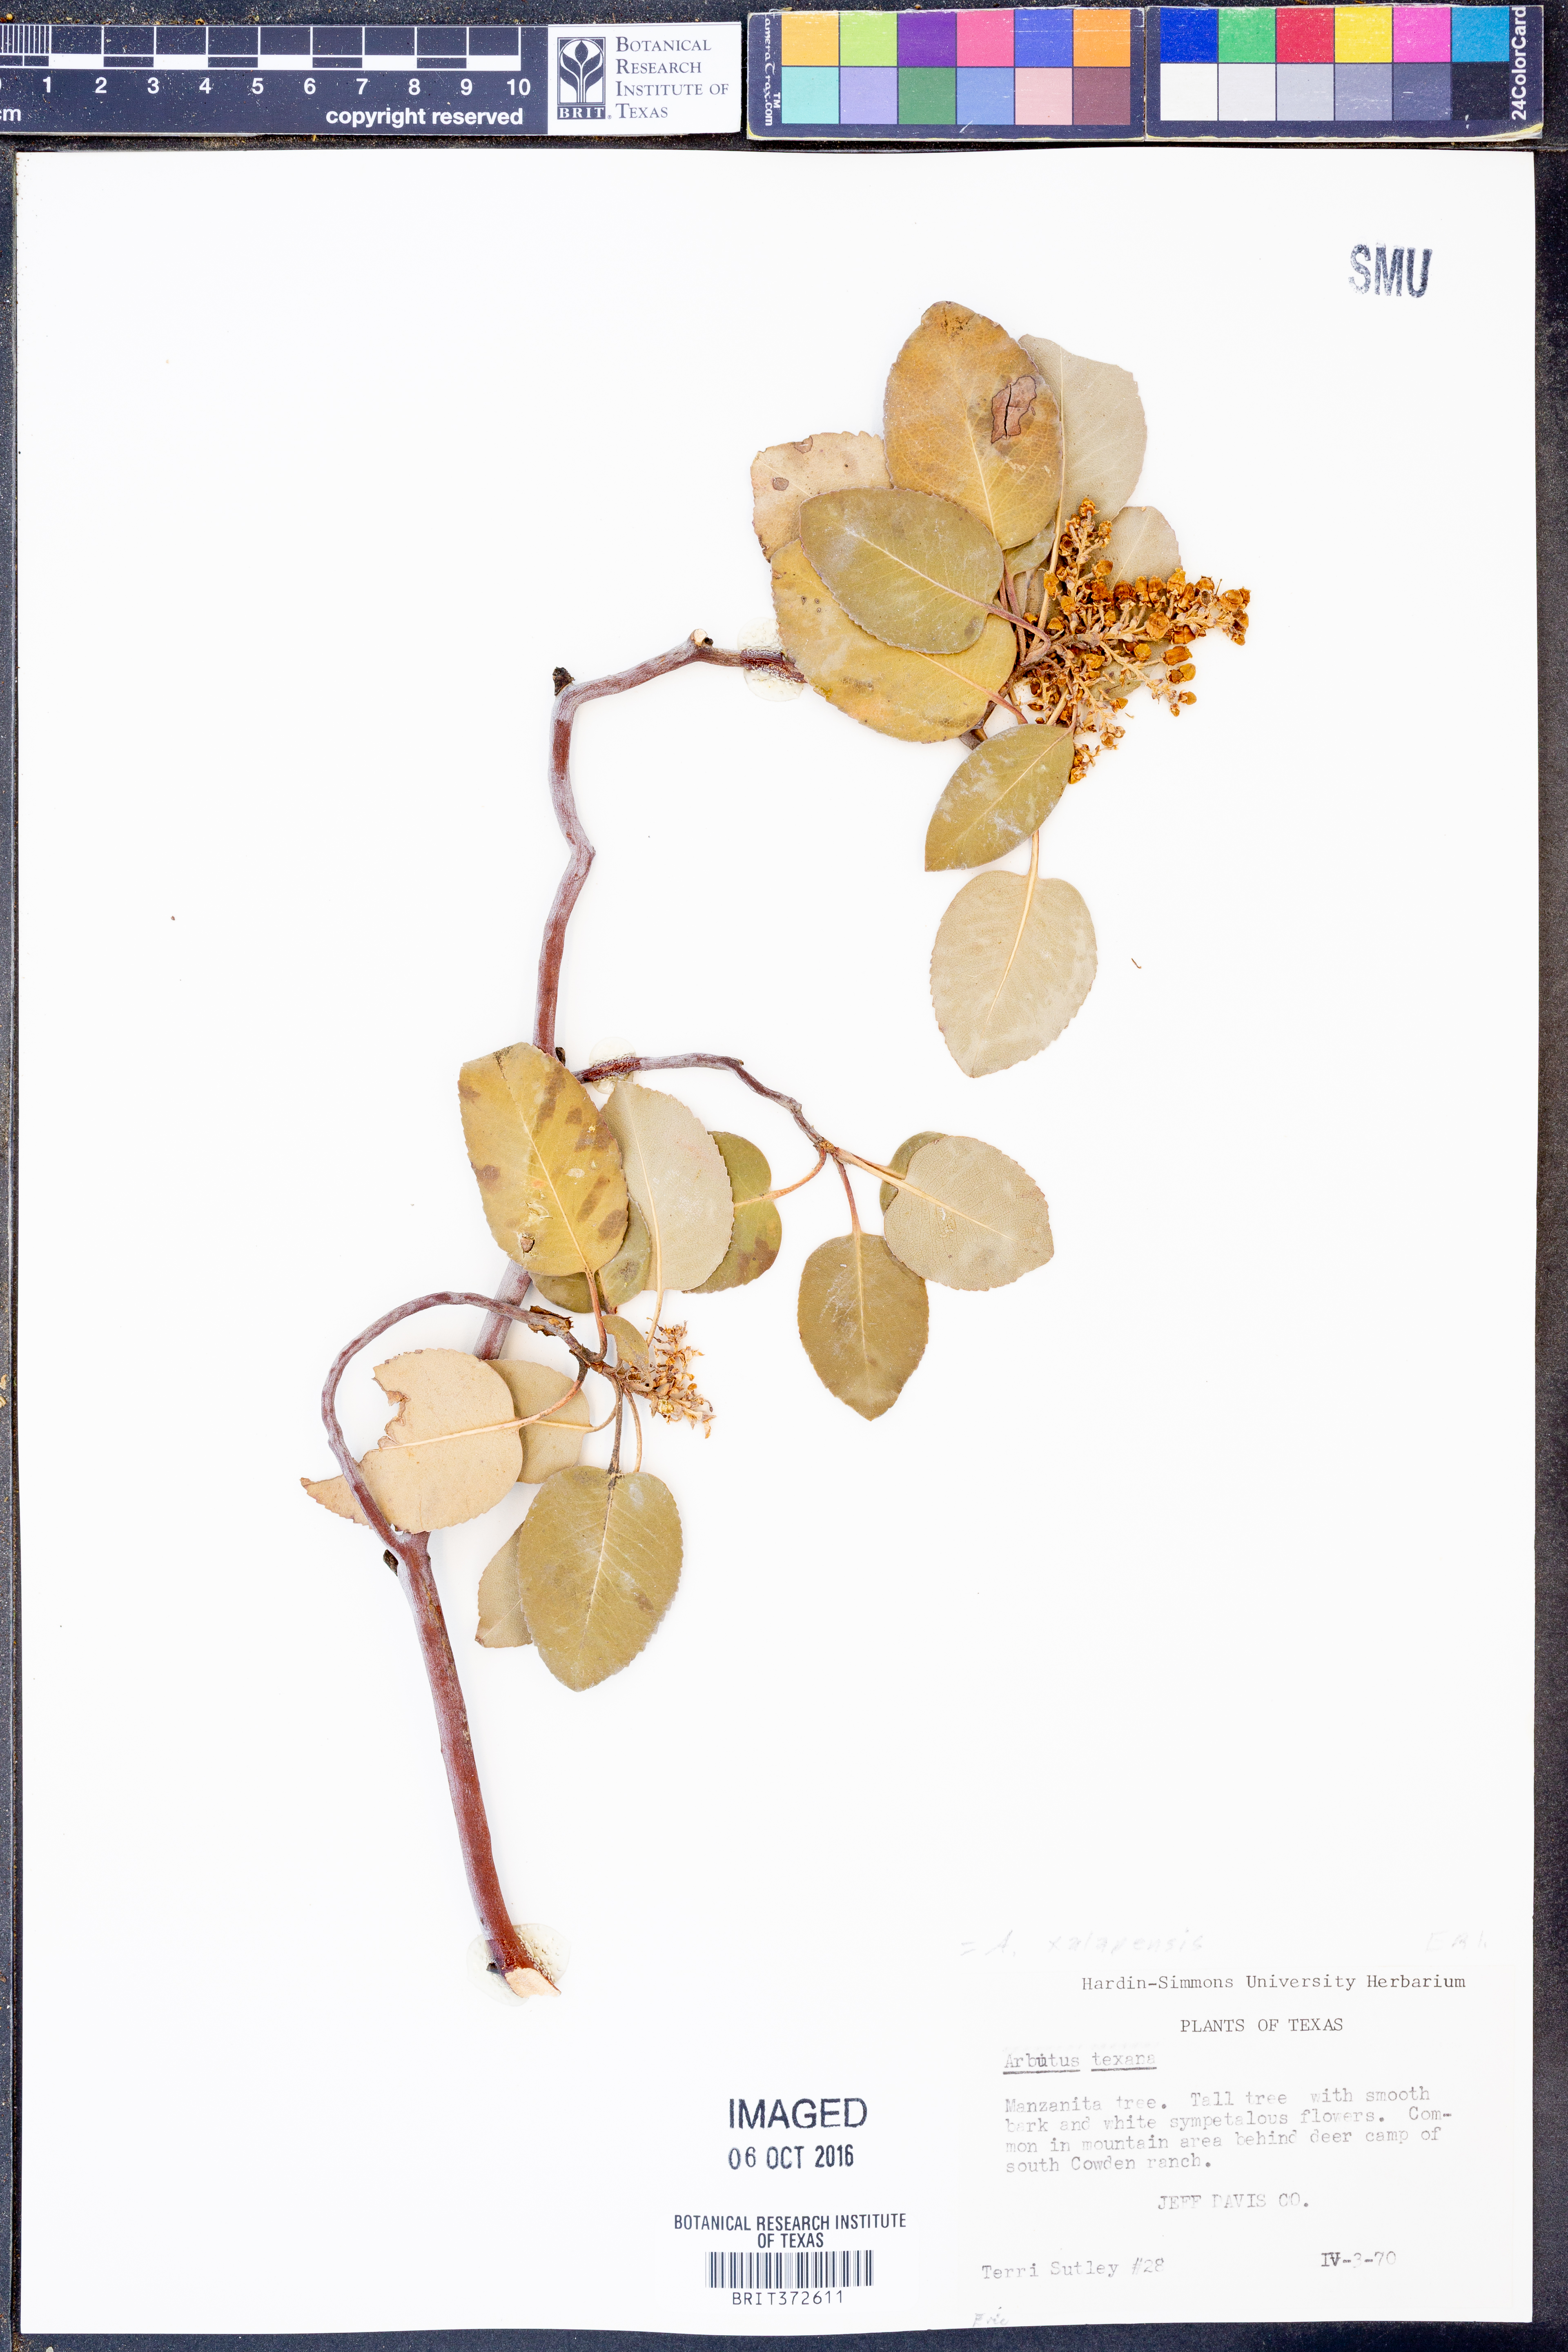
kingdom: Plantae
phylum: Tracheophyta
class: Magnoliopsida
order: Ericales
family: Ericaceae
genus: Arbutus
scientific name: Arbutus xalapensis
